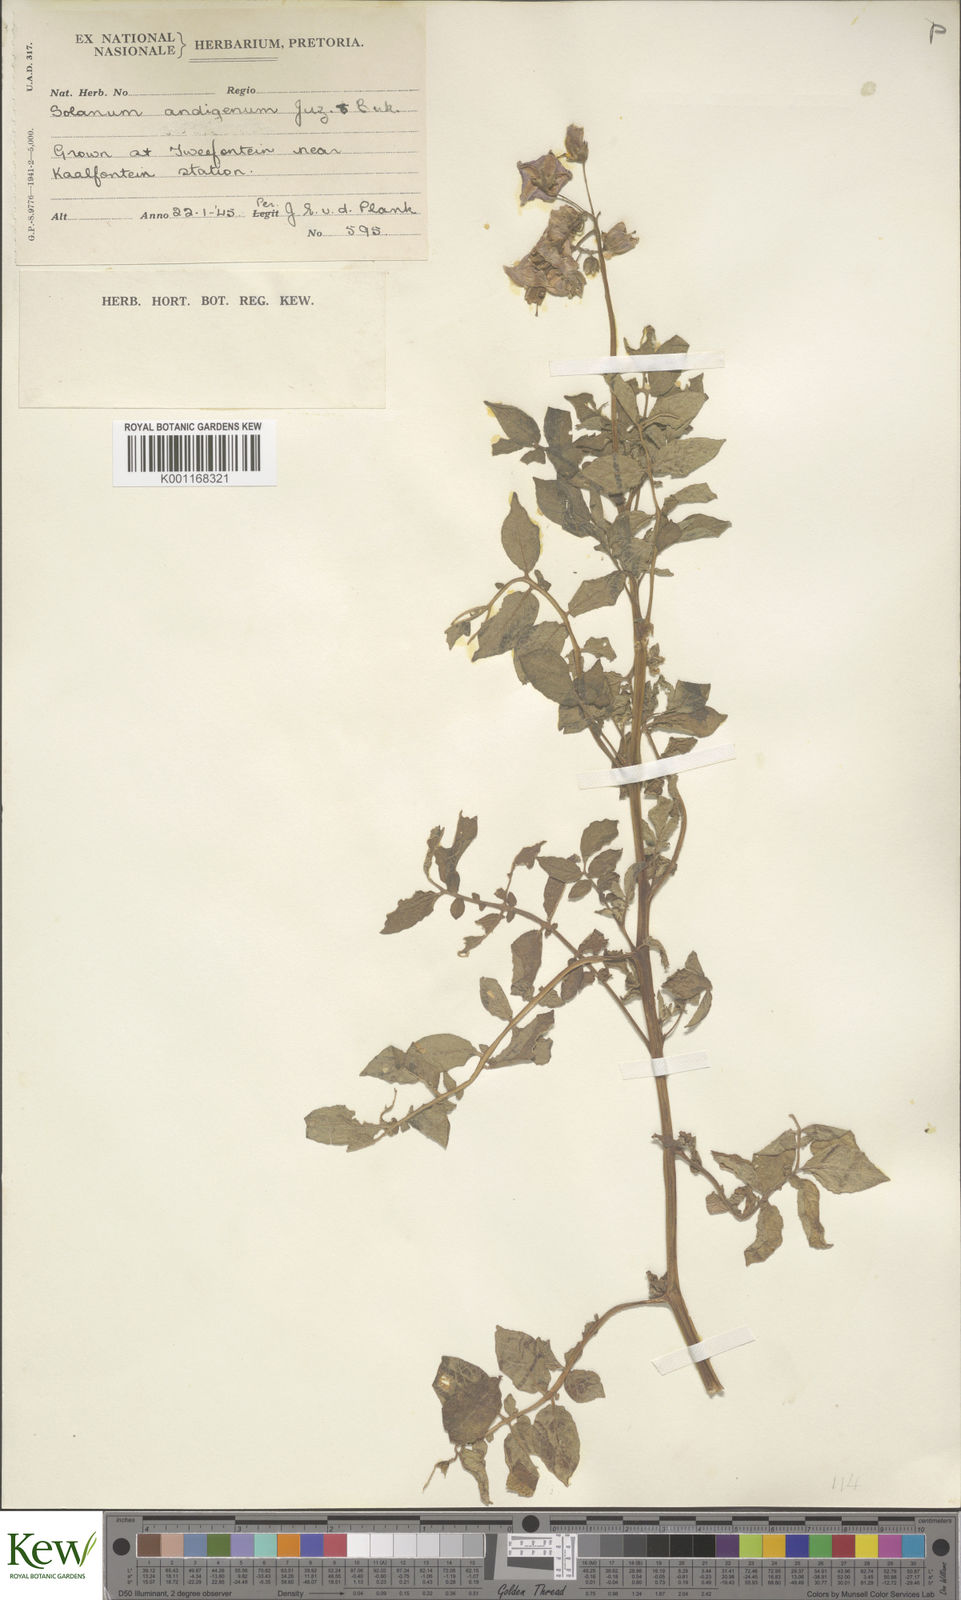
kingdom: Plantae
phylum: Tracheophyta
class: Magnoliopsida
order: Solanales
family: Solanaceae
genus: Solanum
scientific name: Solanum tuberosum
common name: Potato
